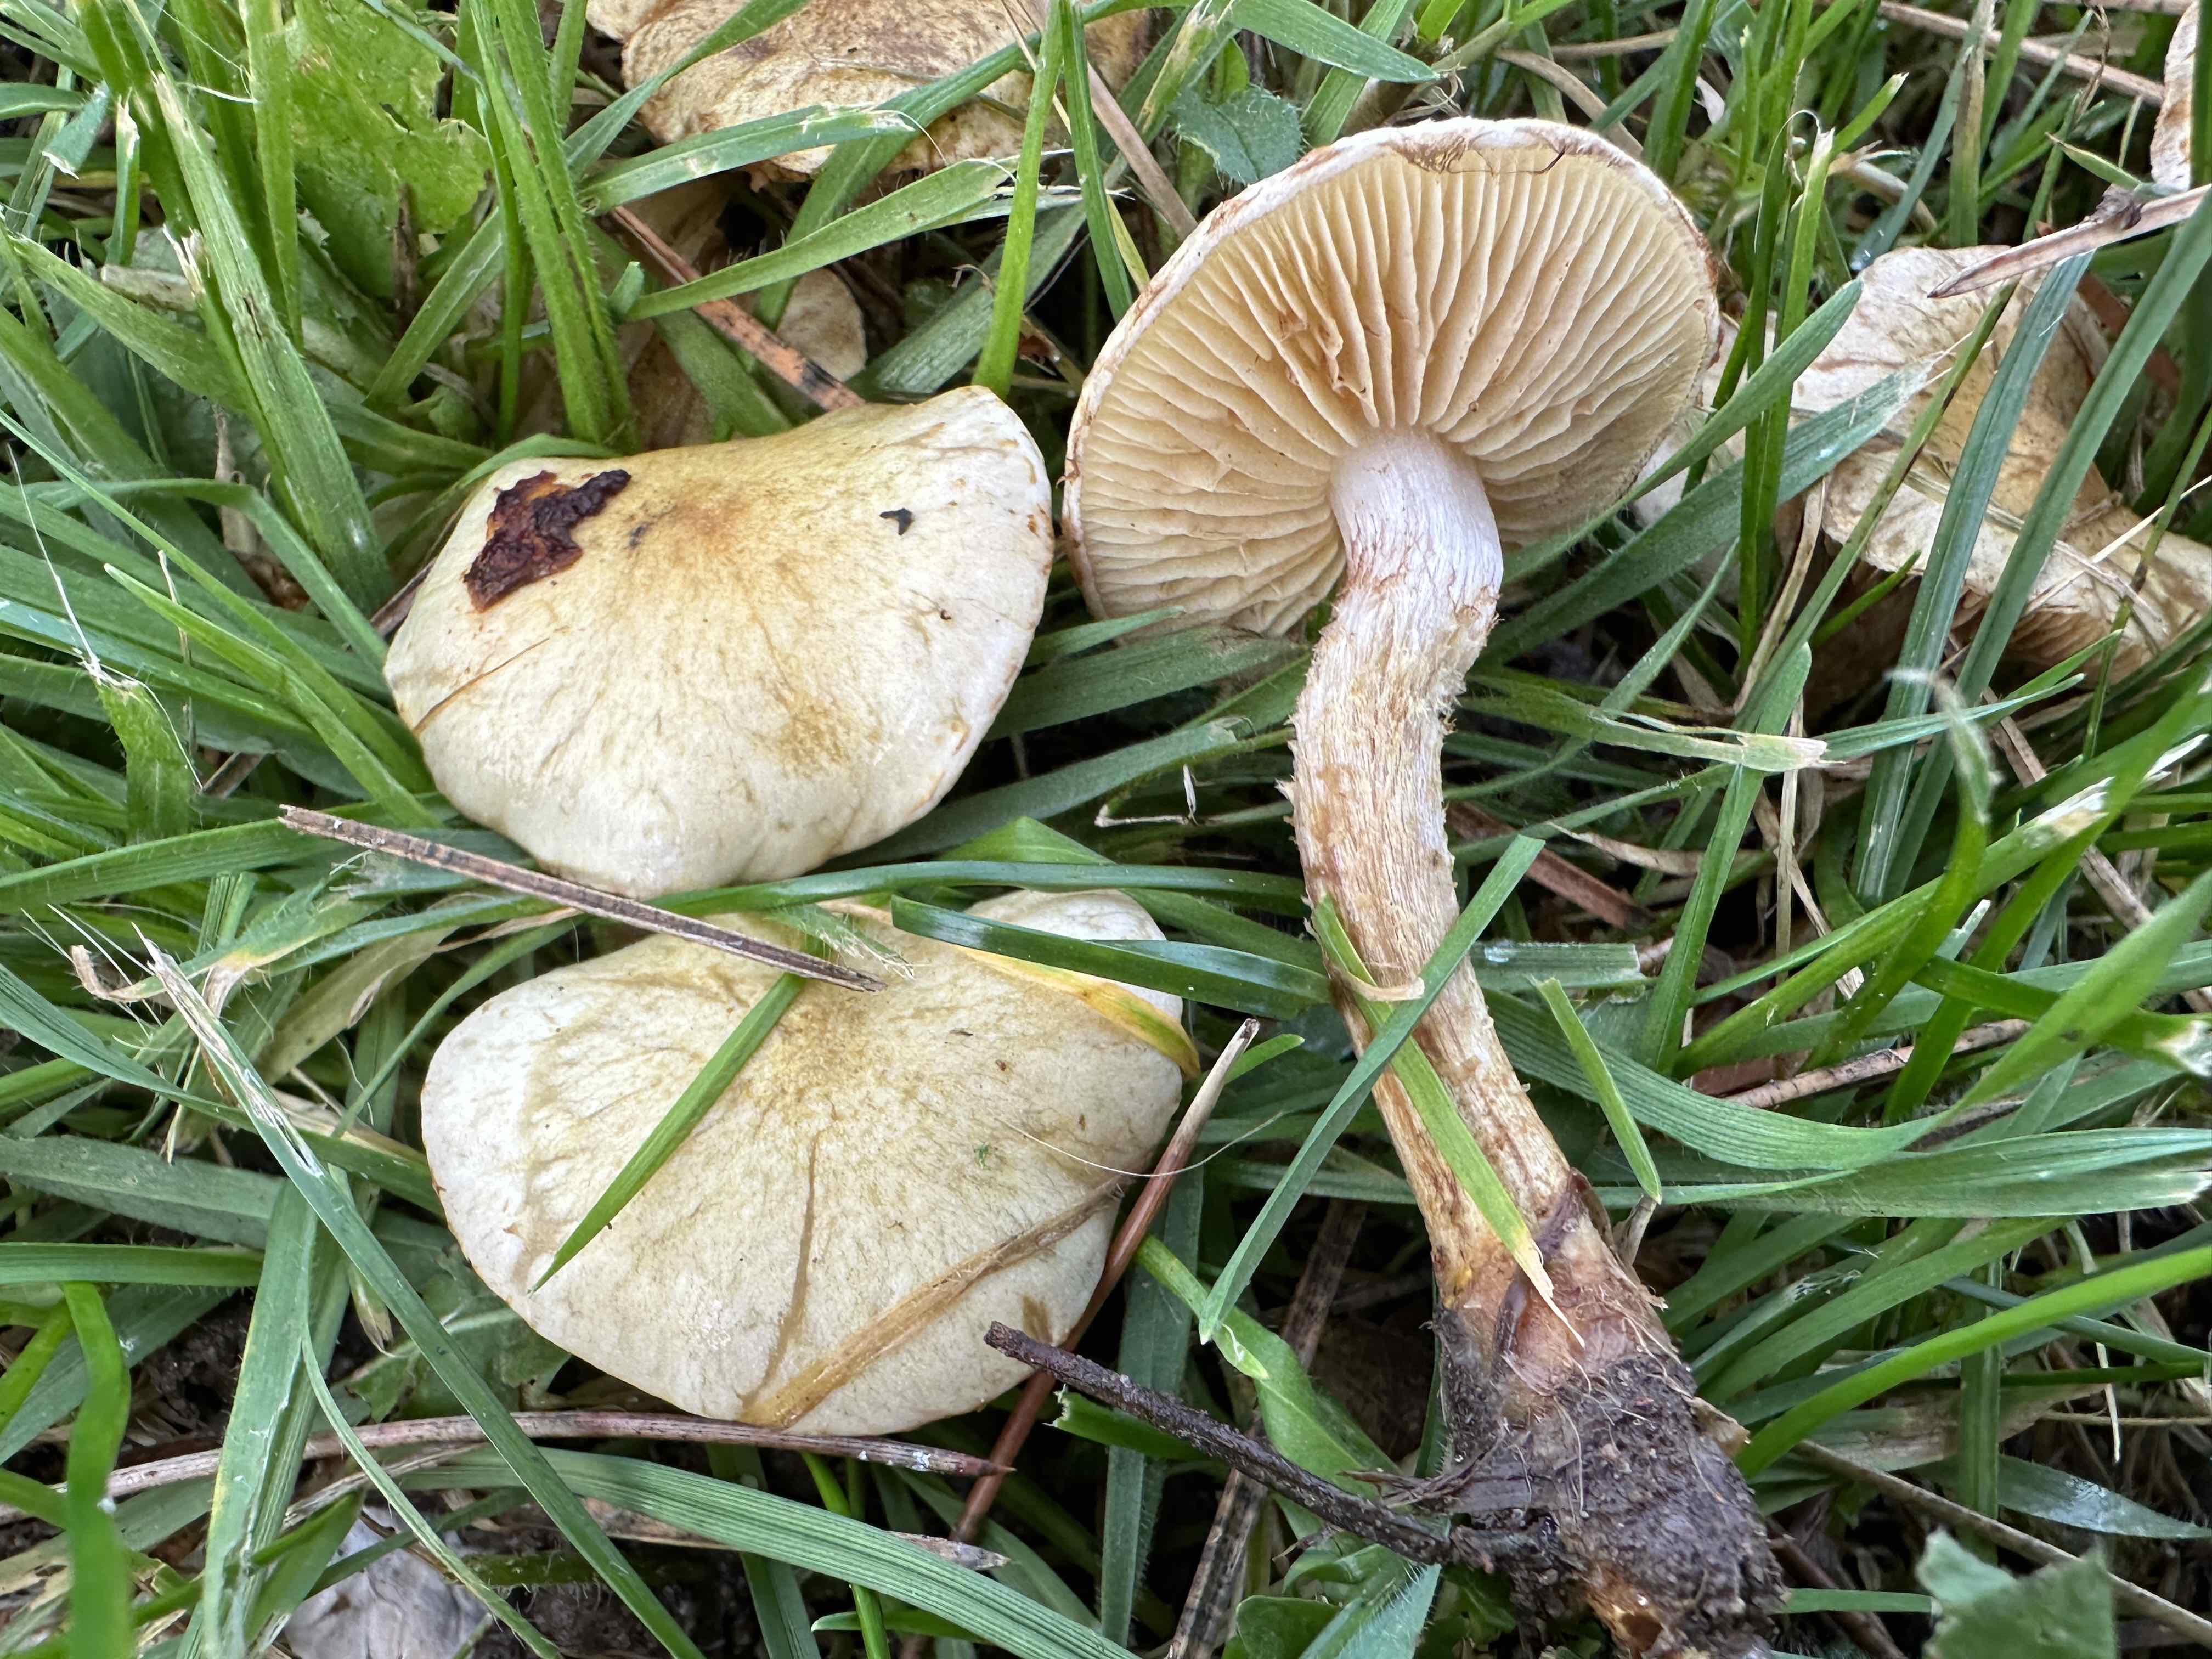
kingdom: Fungi
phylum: Basidiomycota
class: Agaricomycetes
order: Agaricales
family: Strophariaceae
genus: Pholiota
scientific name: Pholiota gummosa
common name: grøngul skælhat
